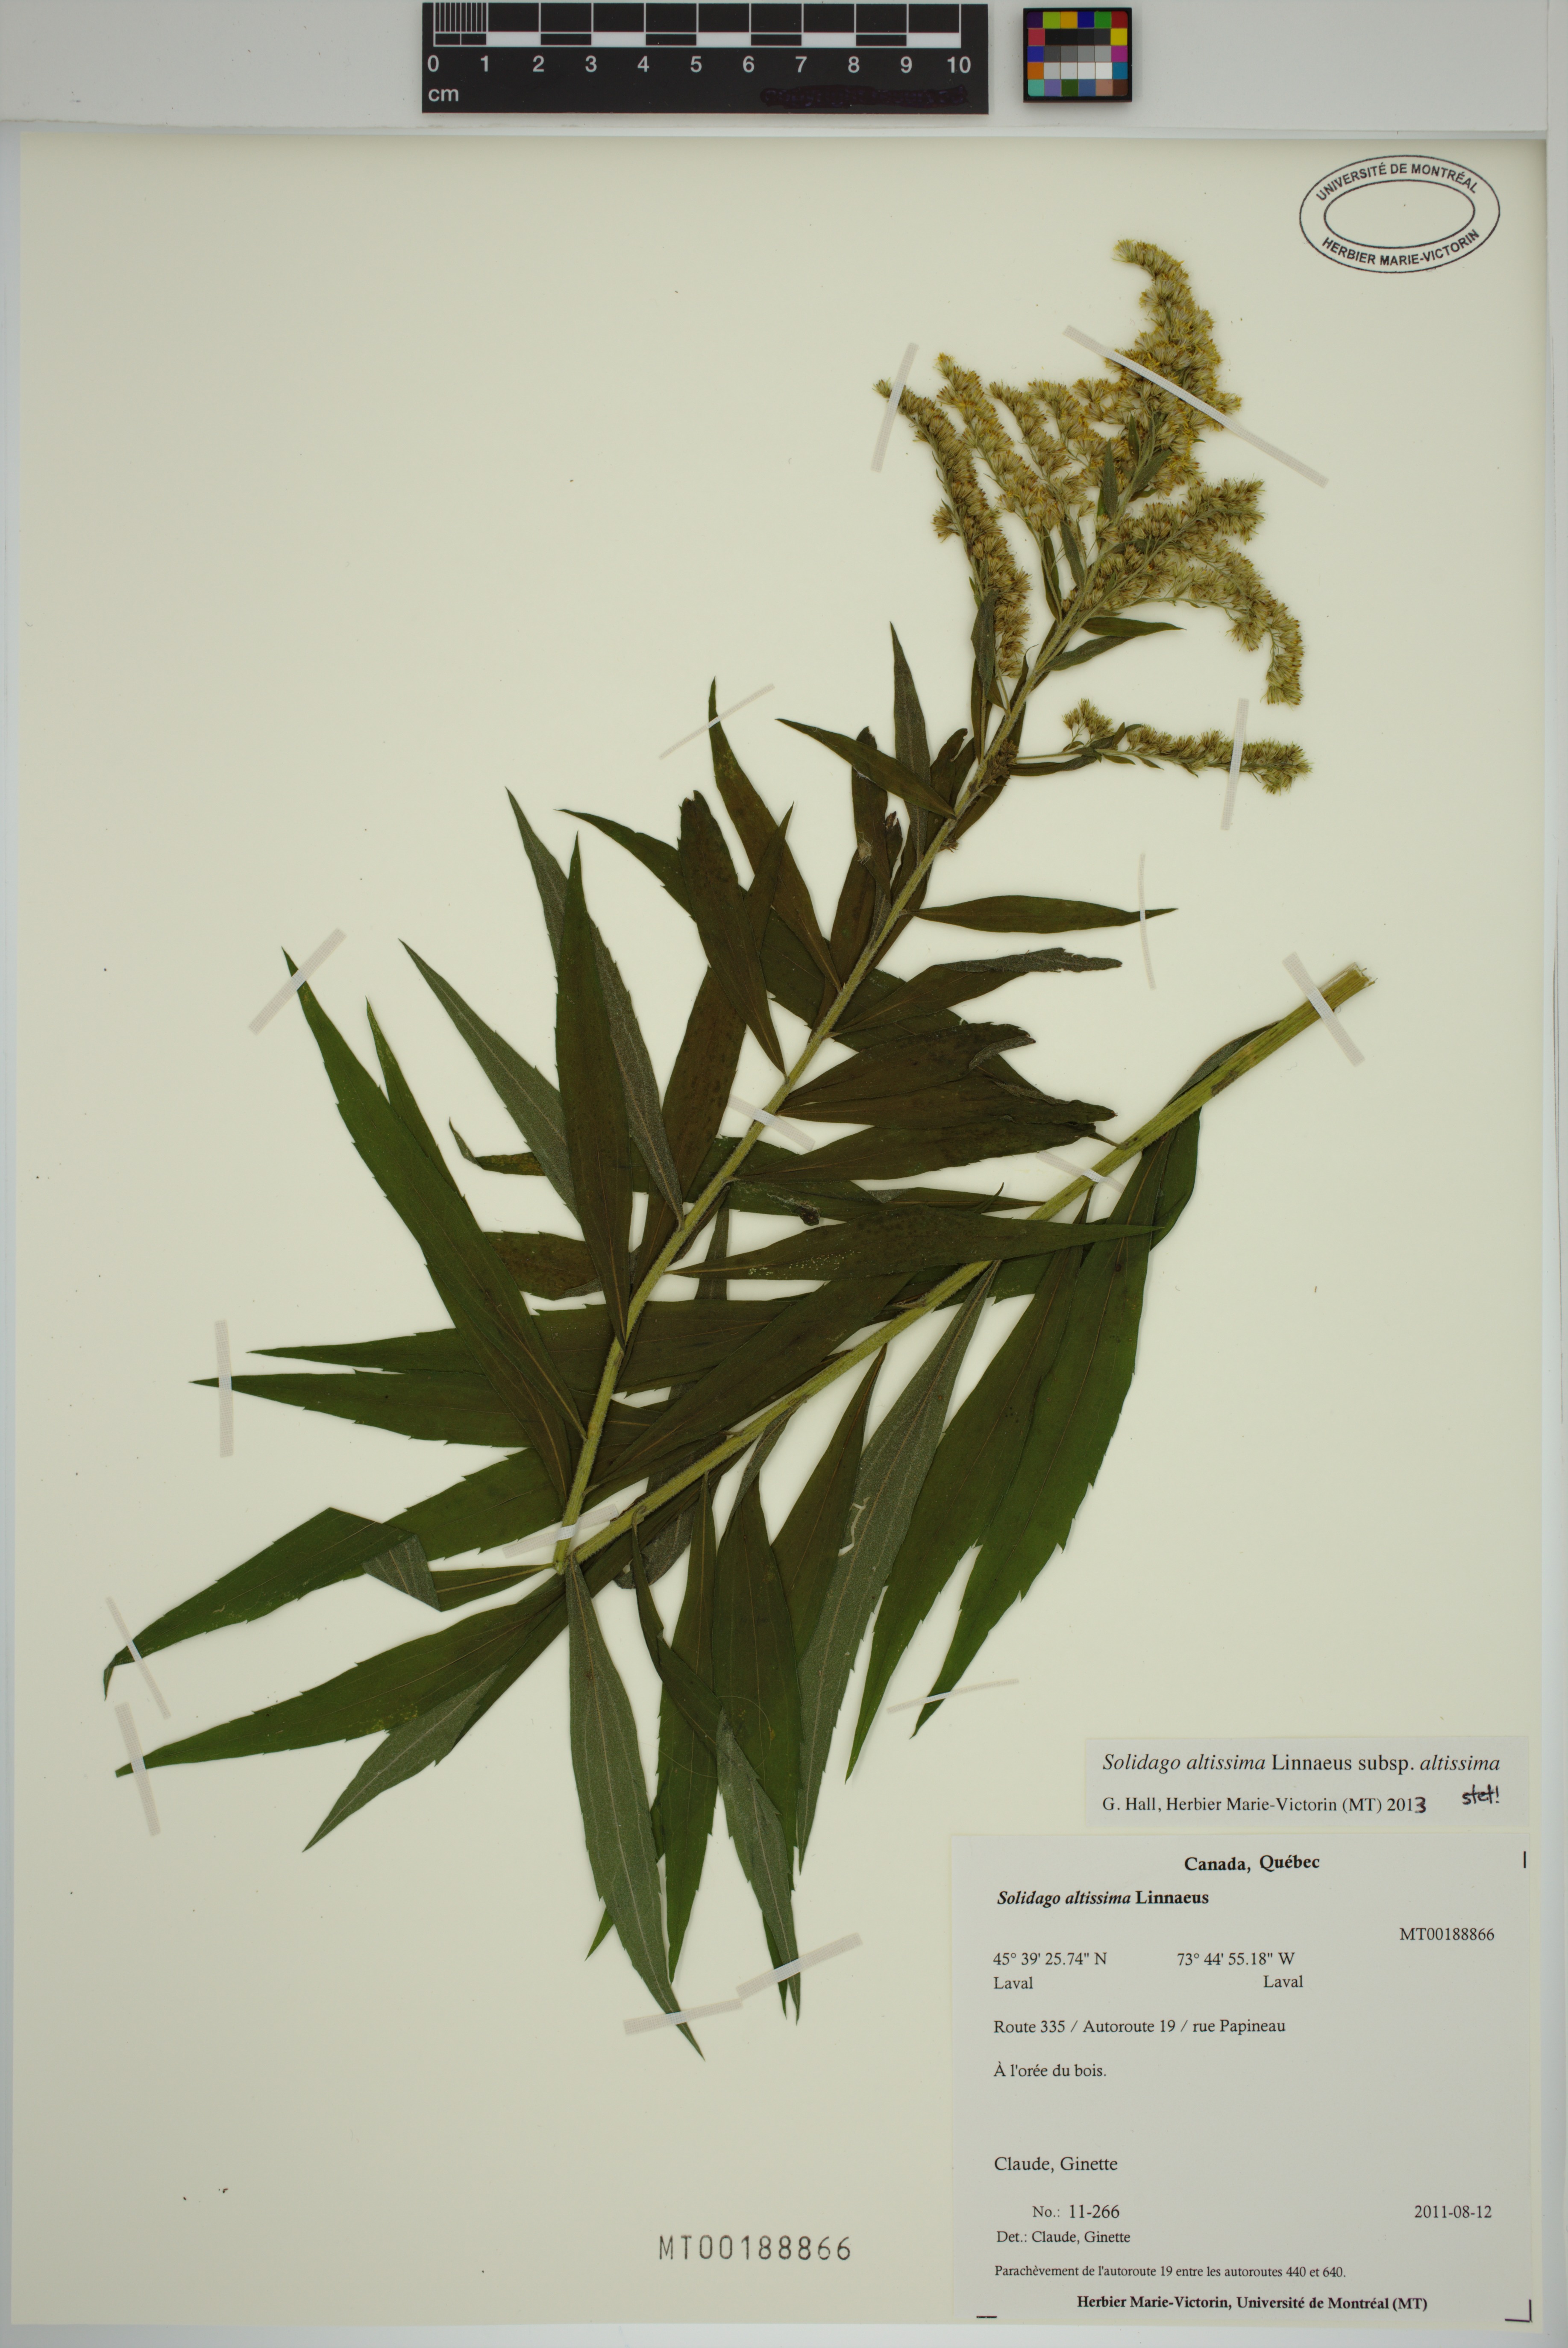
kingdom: Plantae
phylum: Tracheophyta
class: Magnoliopsida
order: Asterales
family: Asteraceae
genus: Solidago
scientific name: Solidago altissima
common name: Late goldenrod
